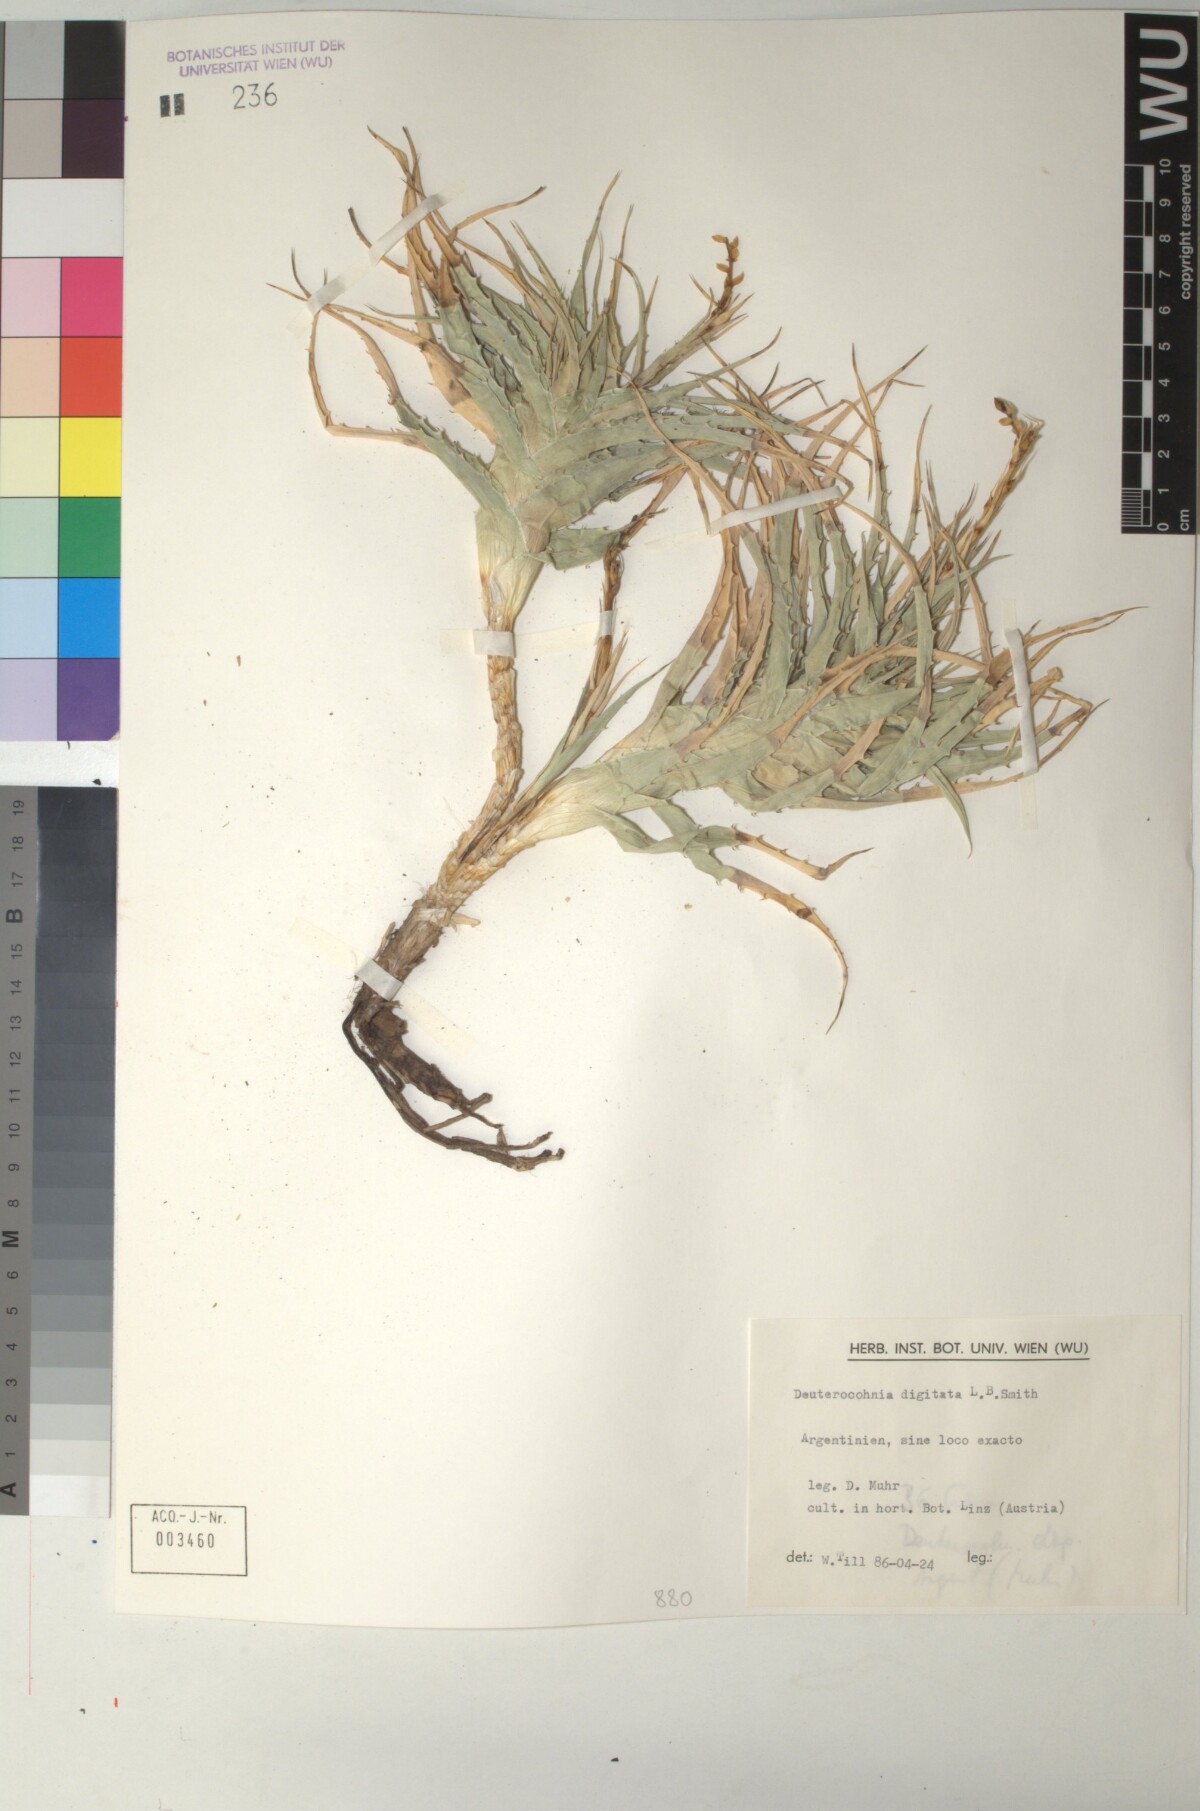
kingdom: Plantae
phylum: Tracheophyta
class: Liliopsida
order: Poales
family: Bromeliaceae
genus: Deuterocohnia
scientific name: Deuterocohnia digitata
